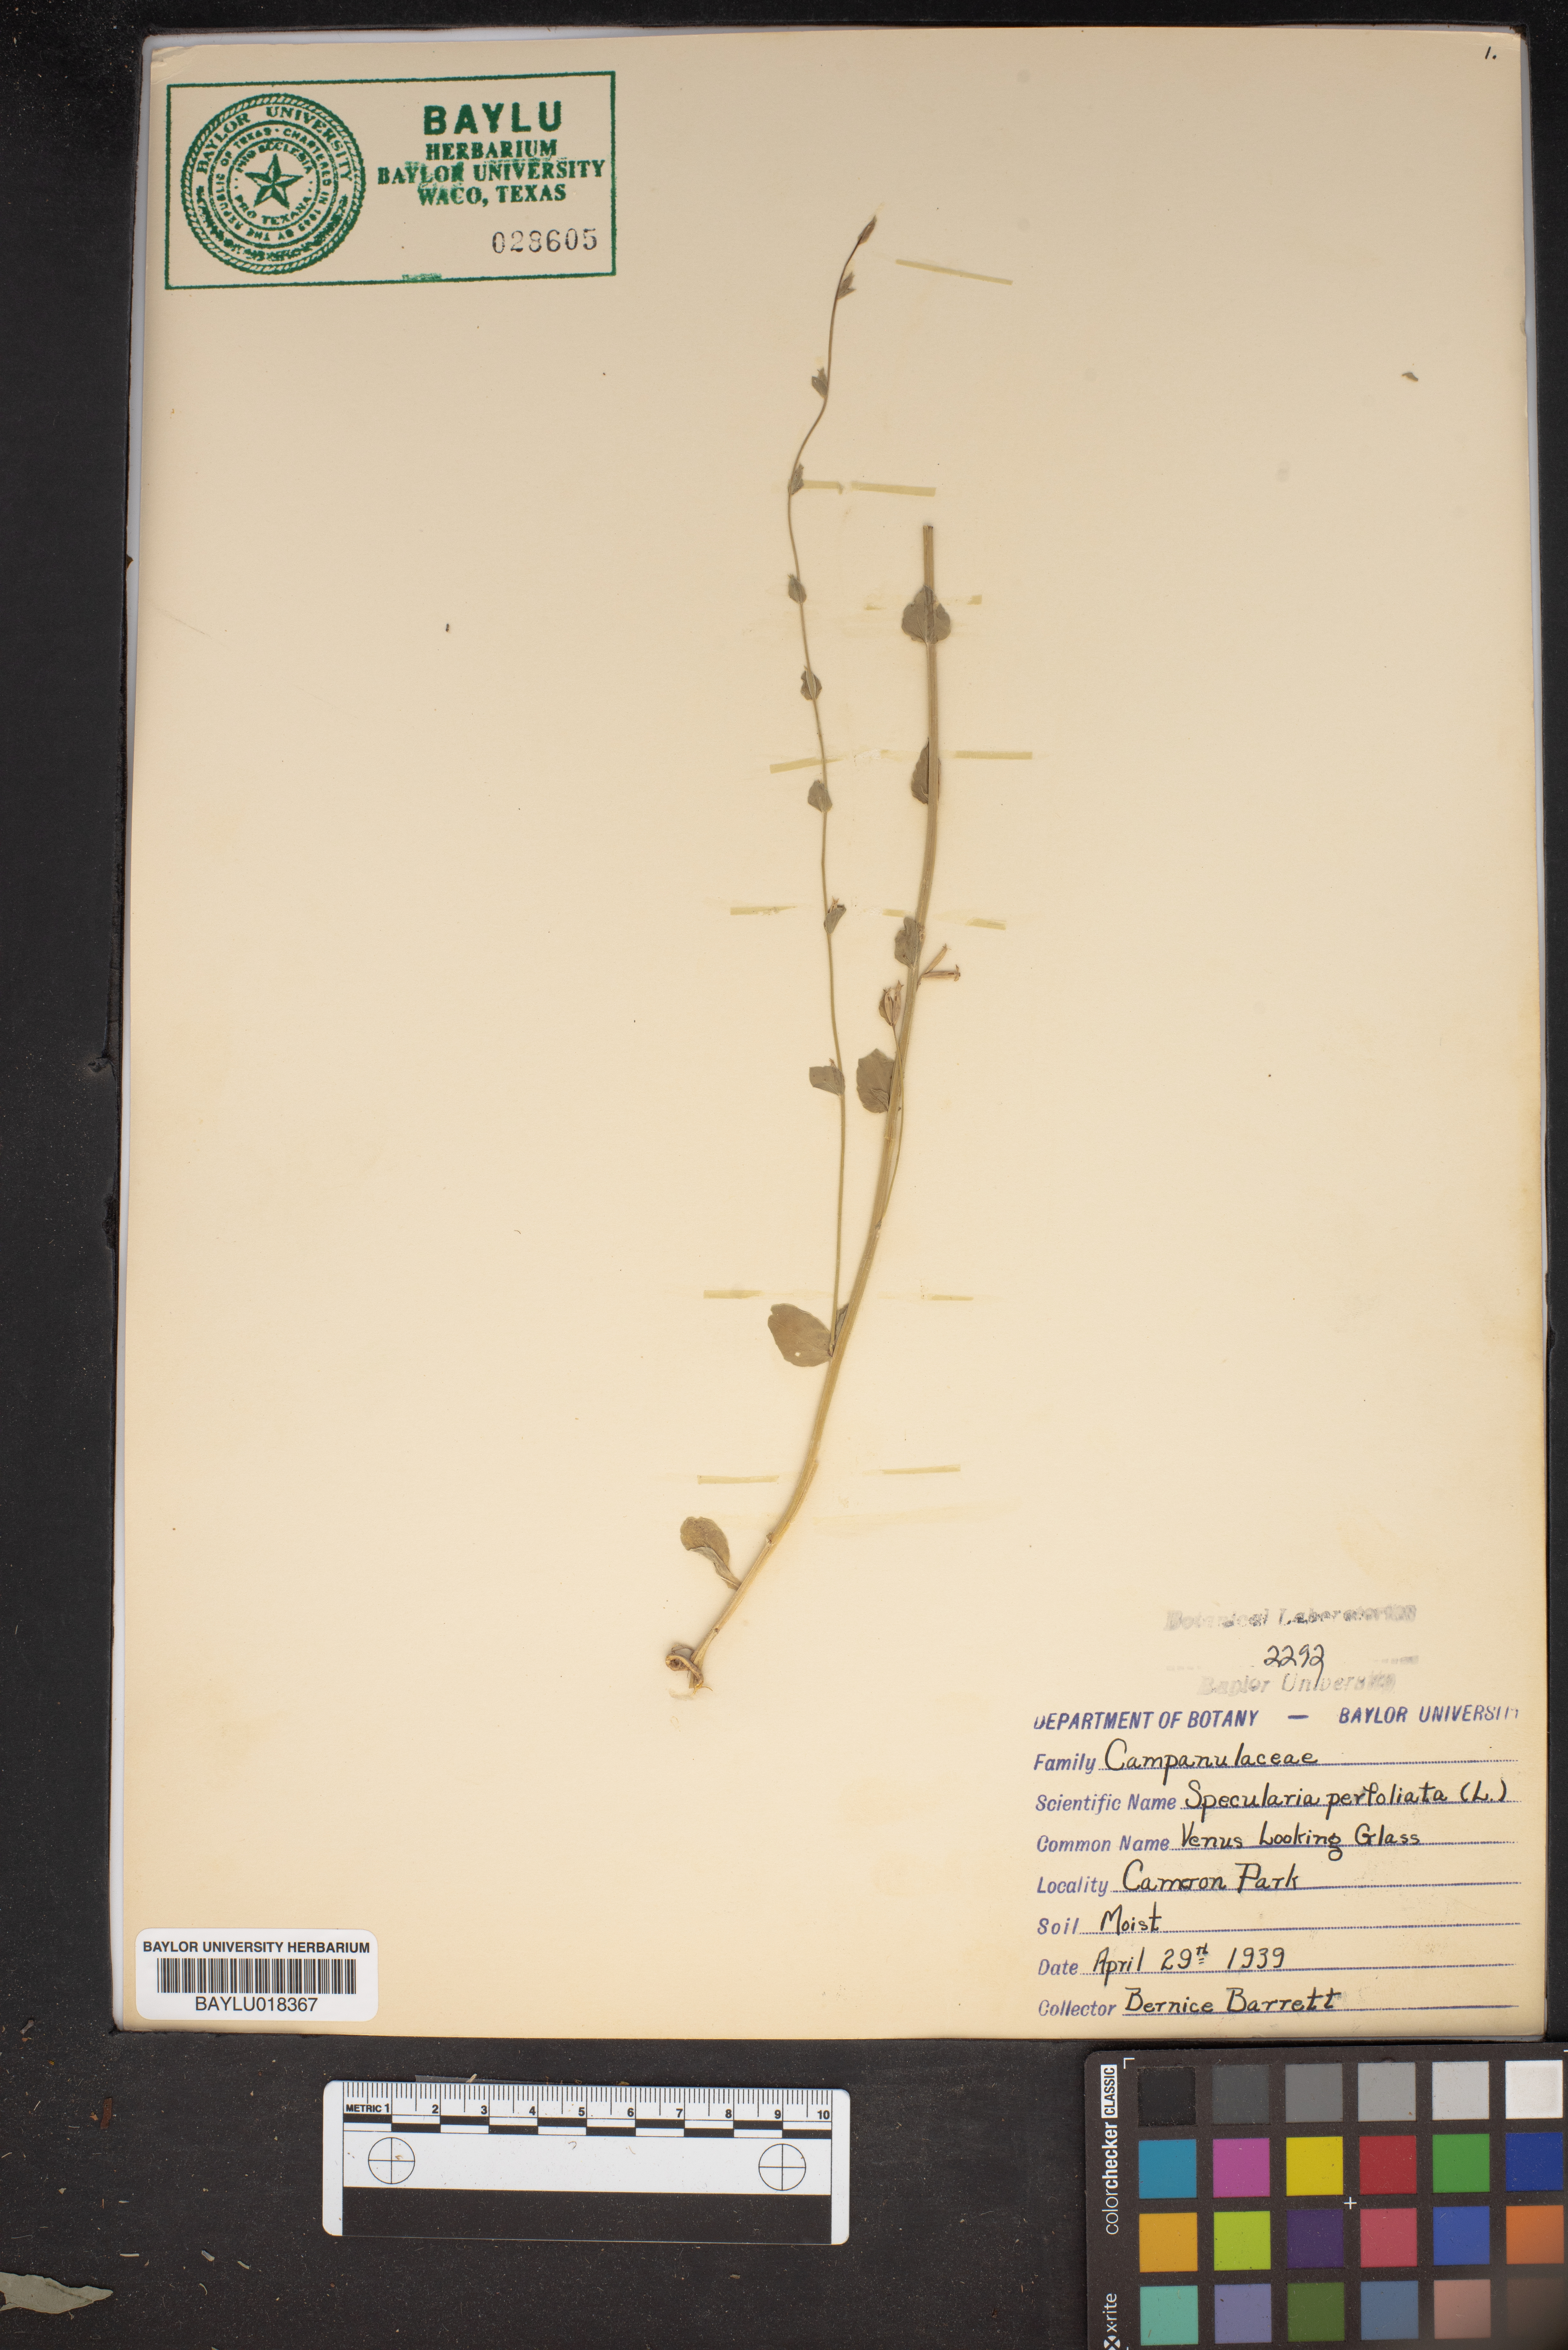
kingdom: Plantae
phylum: Tracheophyta
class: Magnoliopsida
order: Asterales
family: Campanulaceae
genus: Triodanis
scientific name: Triodanis perfoliata
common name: Clasping venus' looking-glass
